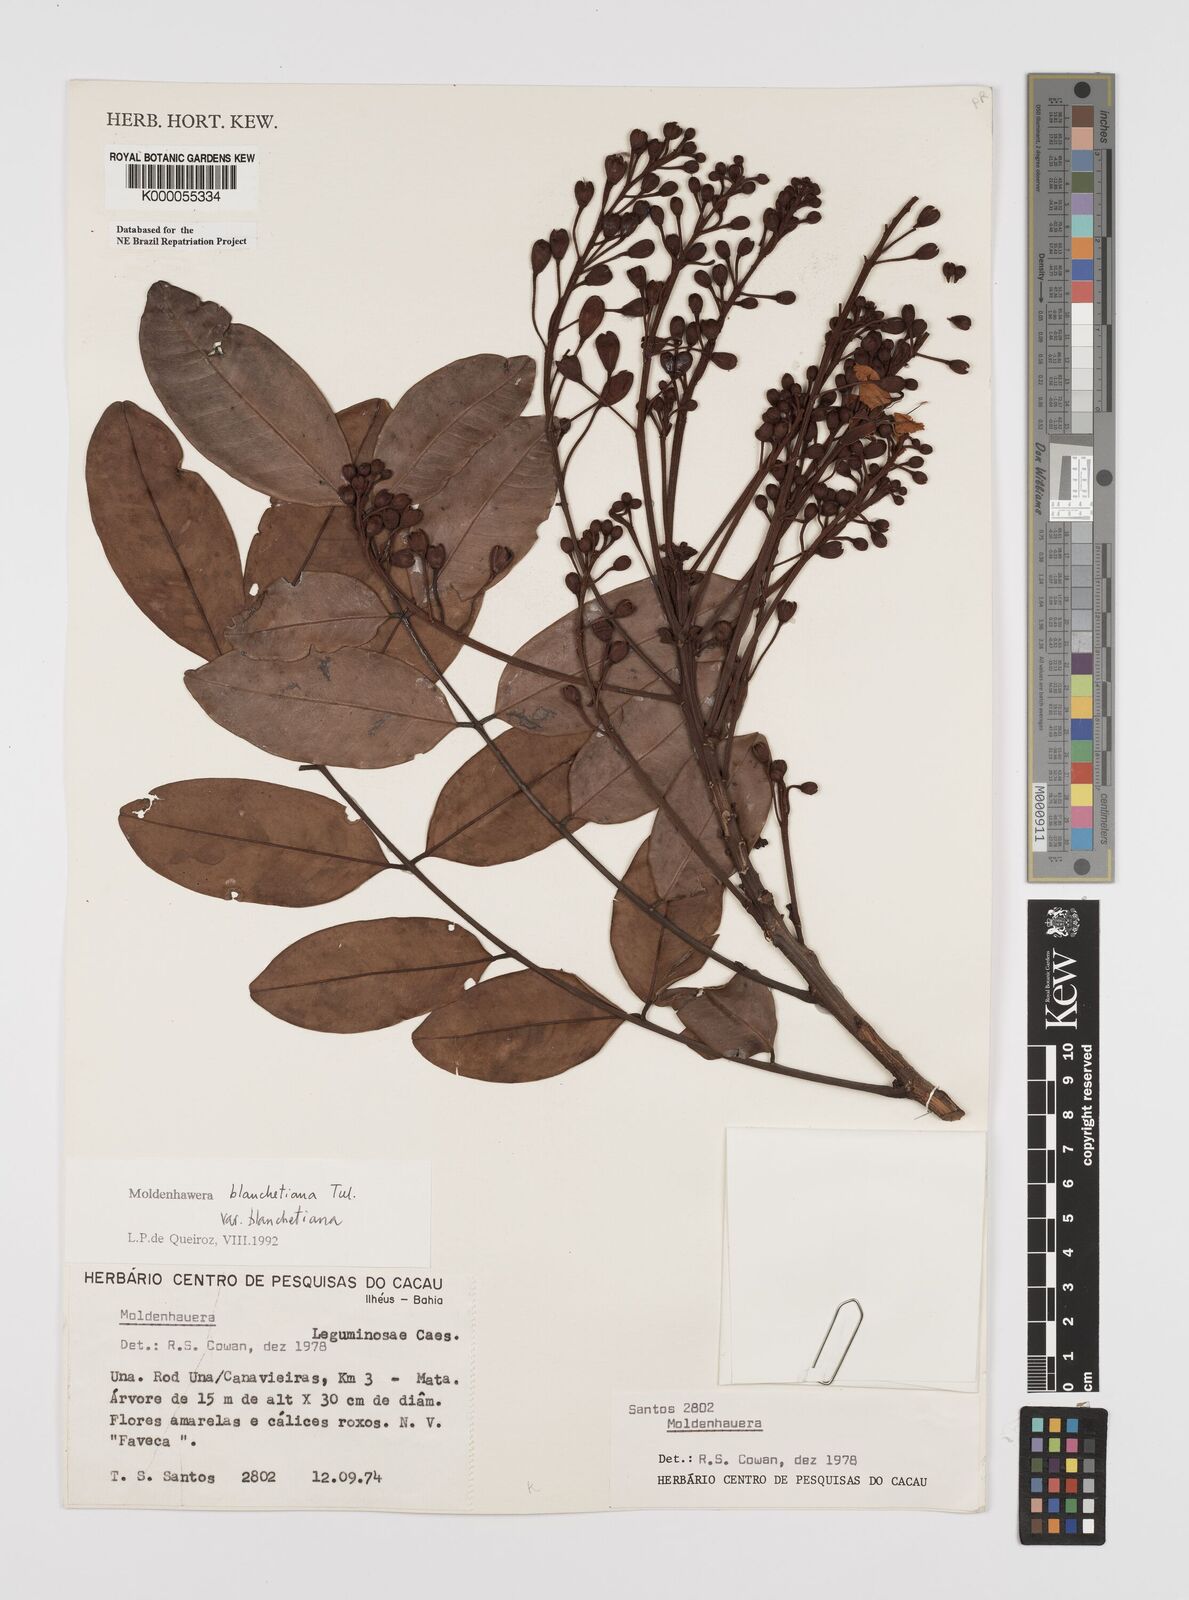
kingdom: Plantae
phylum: Tracheophyta
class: Magnoliopsida
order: Fabales
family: Fabaceae
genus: Moldenhawera
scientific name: Moldenhawera blanchetiana
